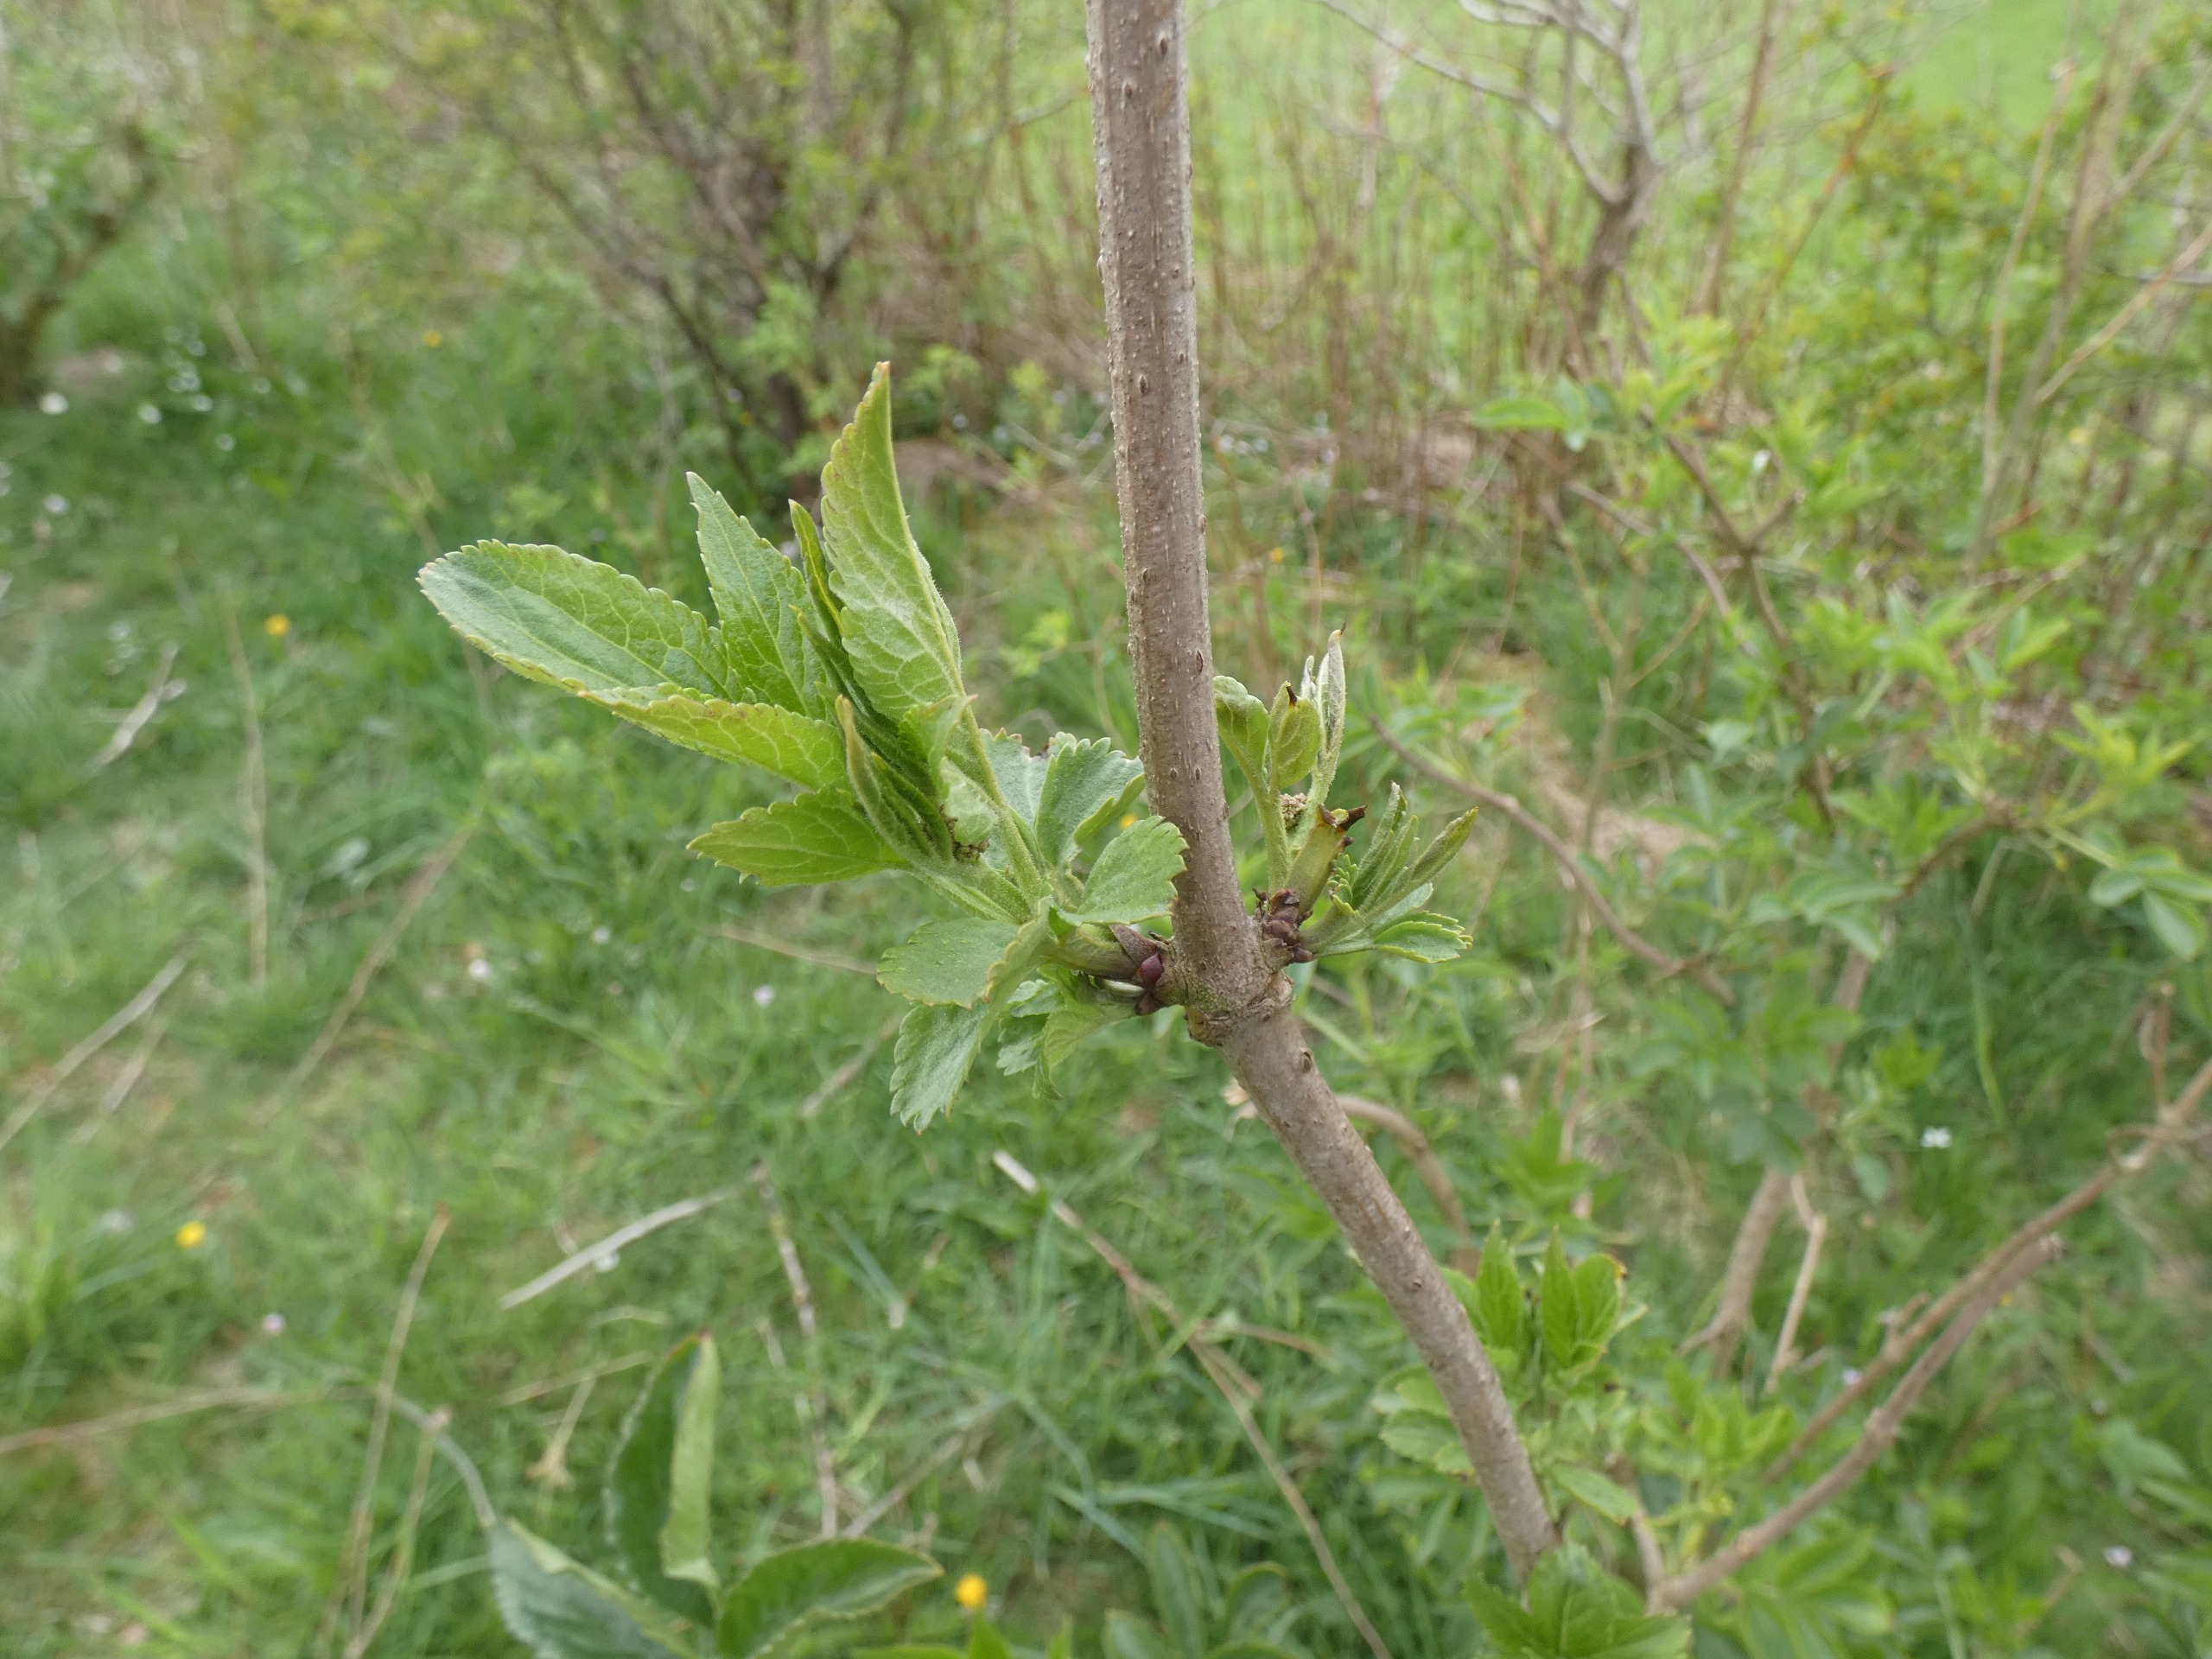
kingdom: Plantae
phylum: Tracheophyta
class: Magnoliopsida
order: Dipsacales
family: Viburnaceae
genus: Sambucus
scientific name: Sambucus nigra
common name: Almindelig hyld
